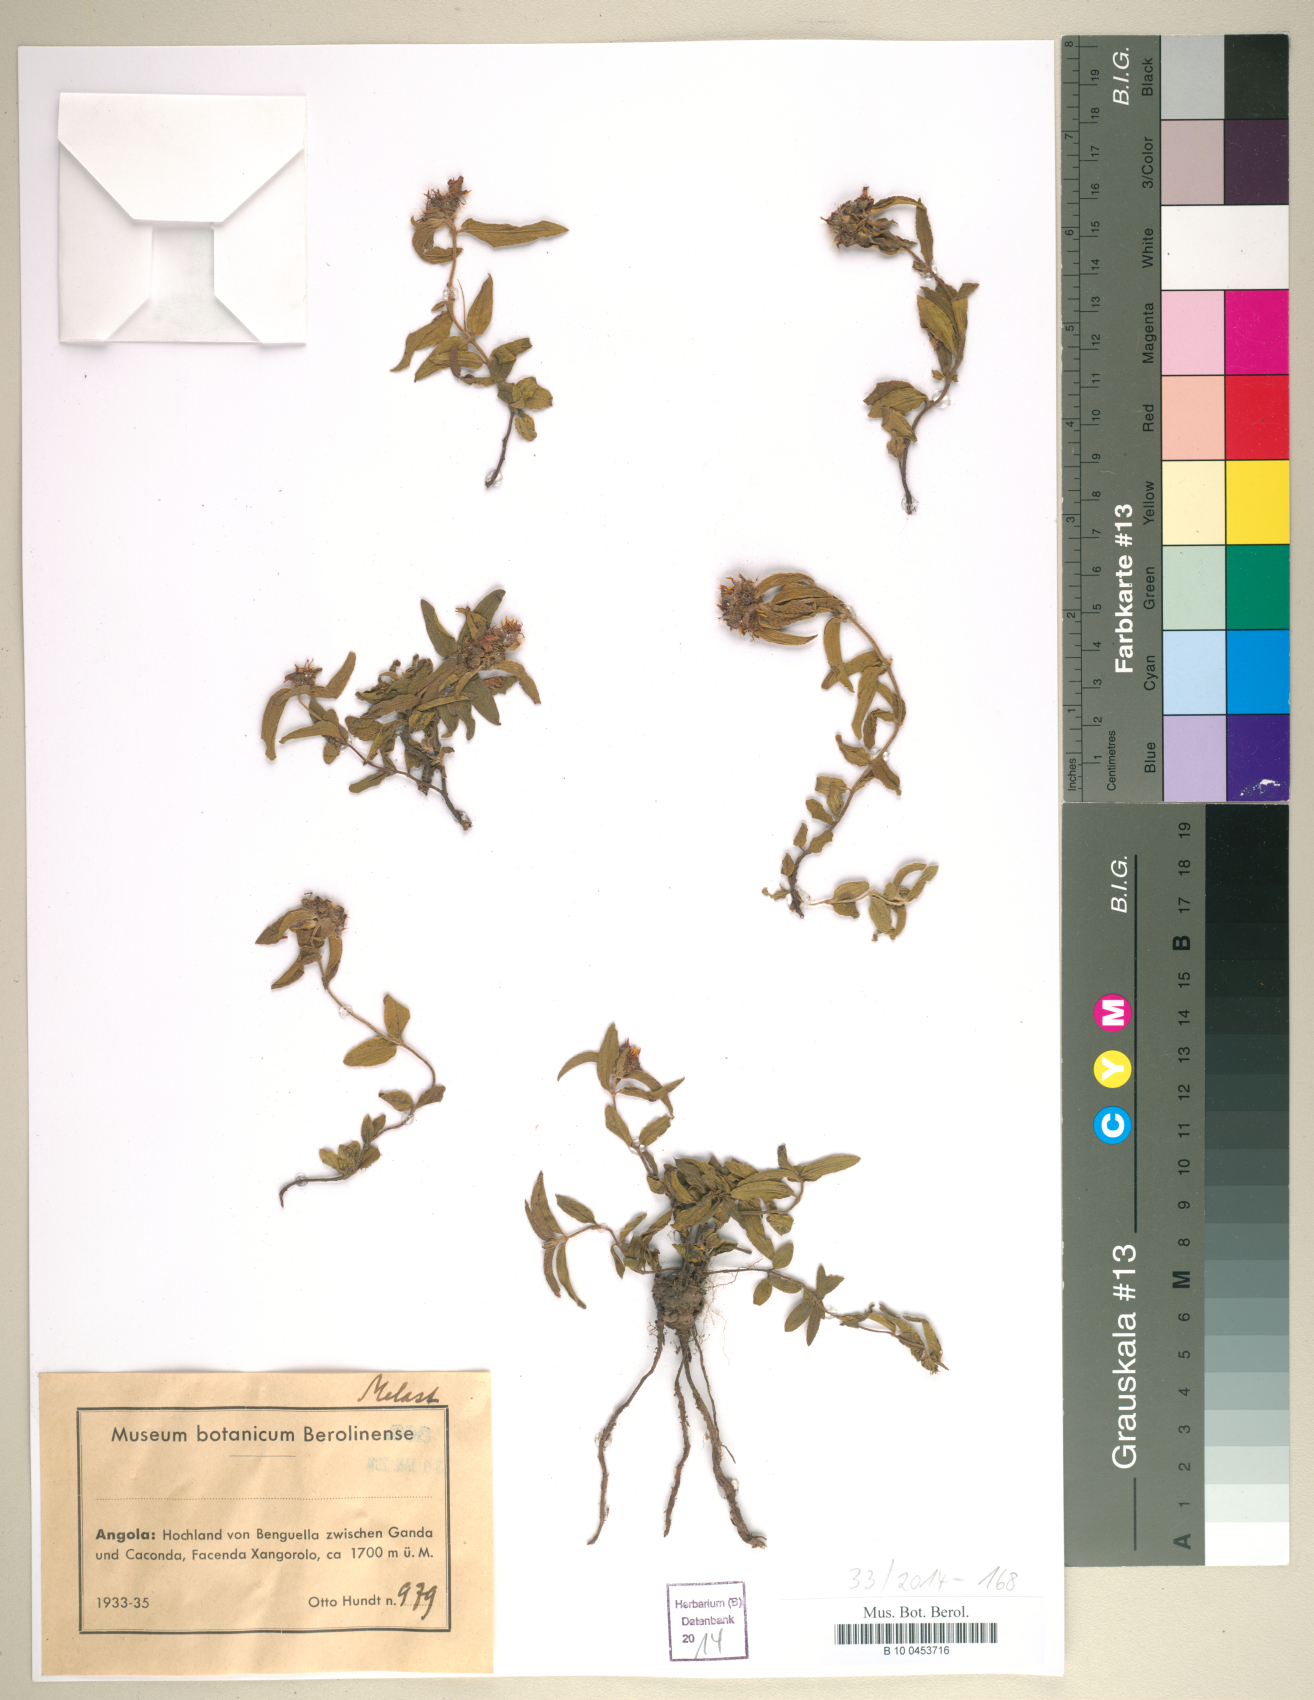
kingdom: Plantae
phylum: Tracheophyta
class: Magnoliopsida
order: Myrtales
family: Melastomataceae
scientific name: Melastomataceae
